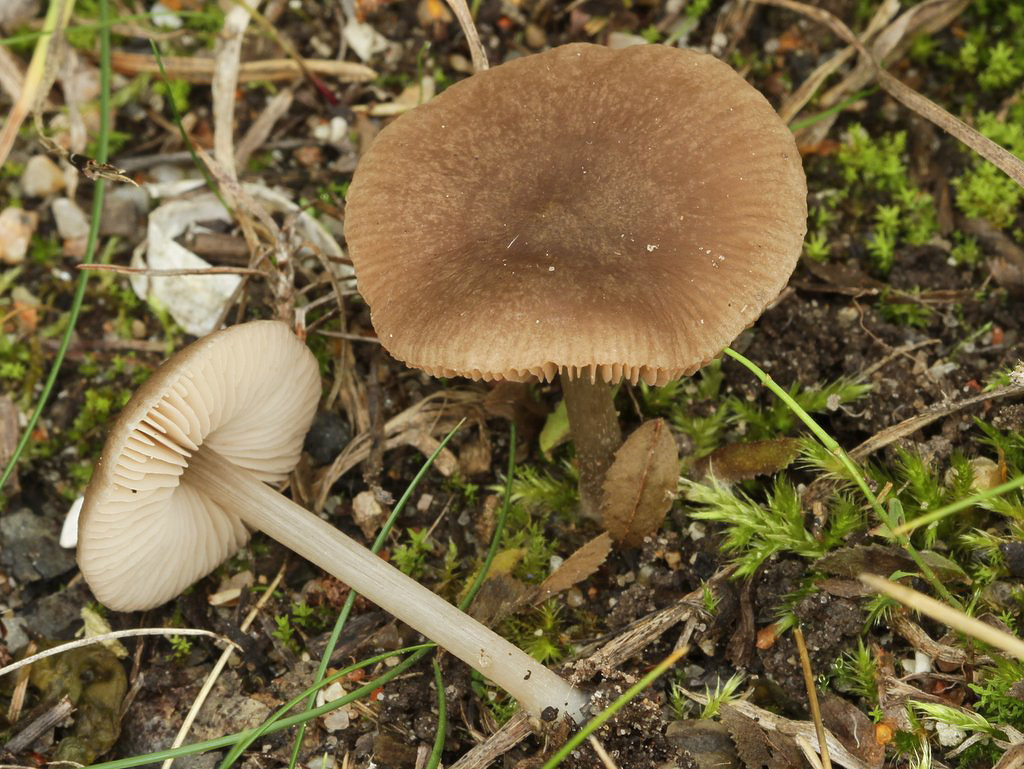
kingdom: Fungi
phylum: Basidiomycota
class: Agaricomycetes
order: Agaricales
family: Pluteaceae
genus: Pluteus
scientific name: Pluteus
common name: pudret skærmhat
